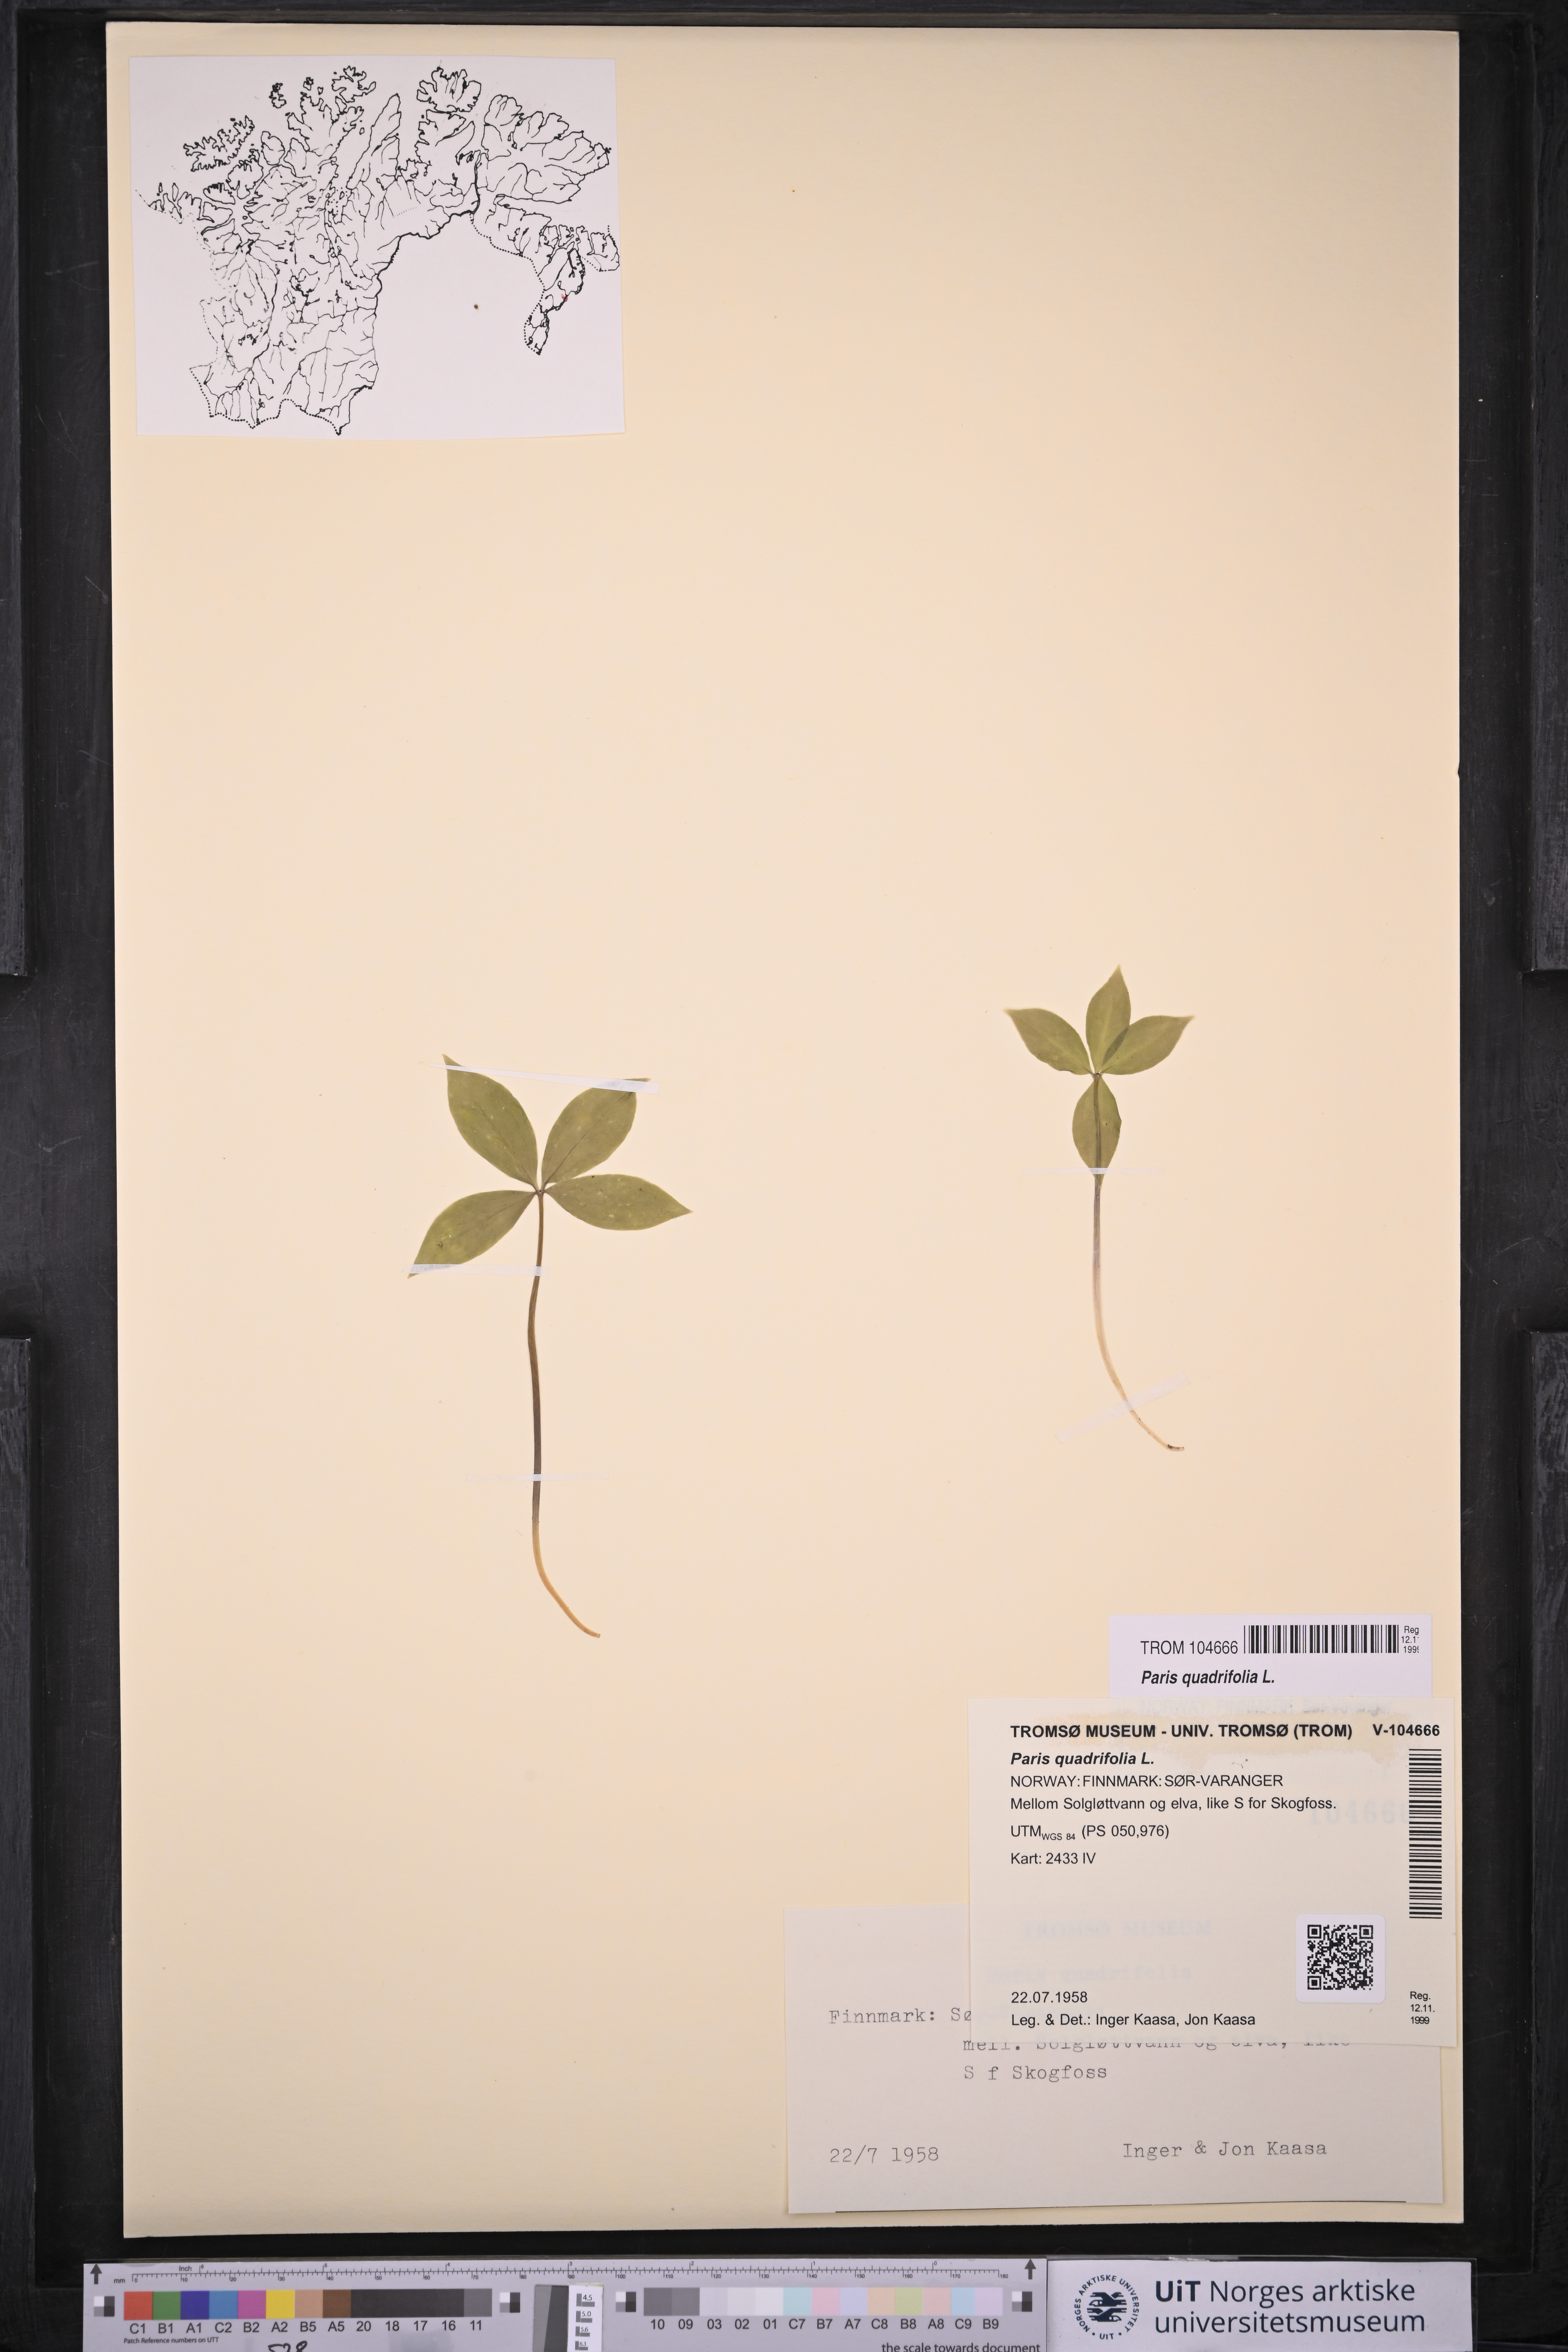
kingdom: Plantae
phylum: Tracheophyta
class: Liliopsida
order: Liliales
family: Melanthiaceae
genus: Paris
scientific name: Paris quadrifolia
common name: Herb-paris
